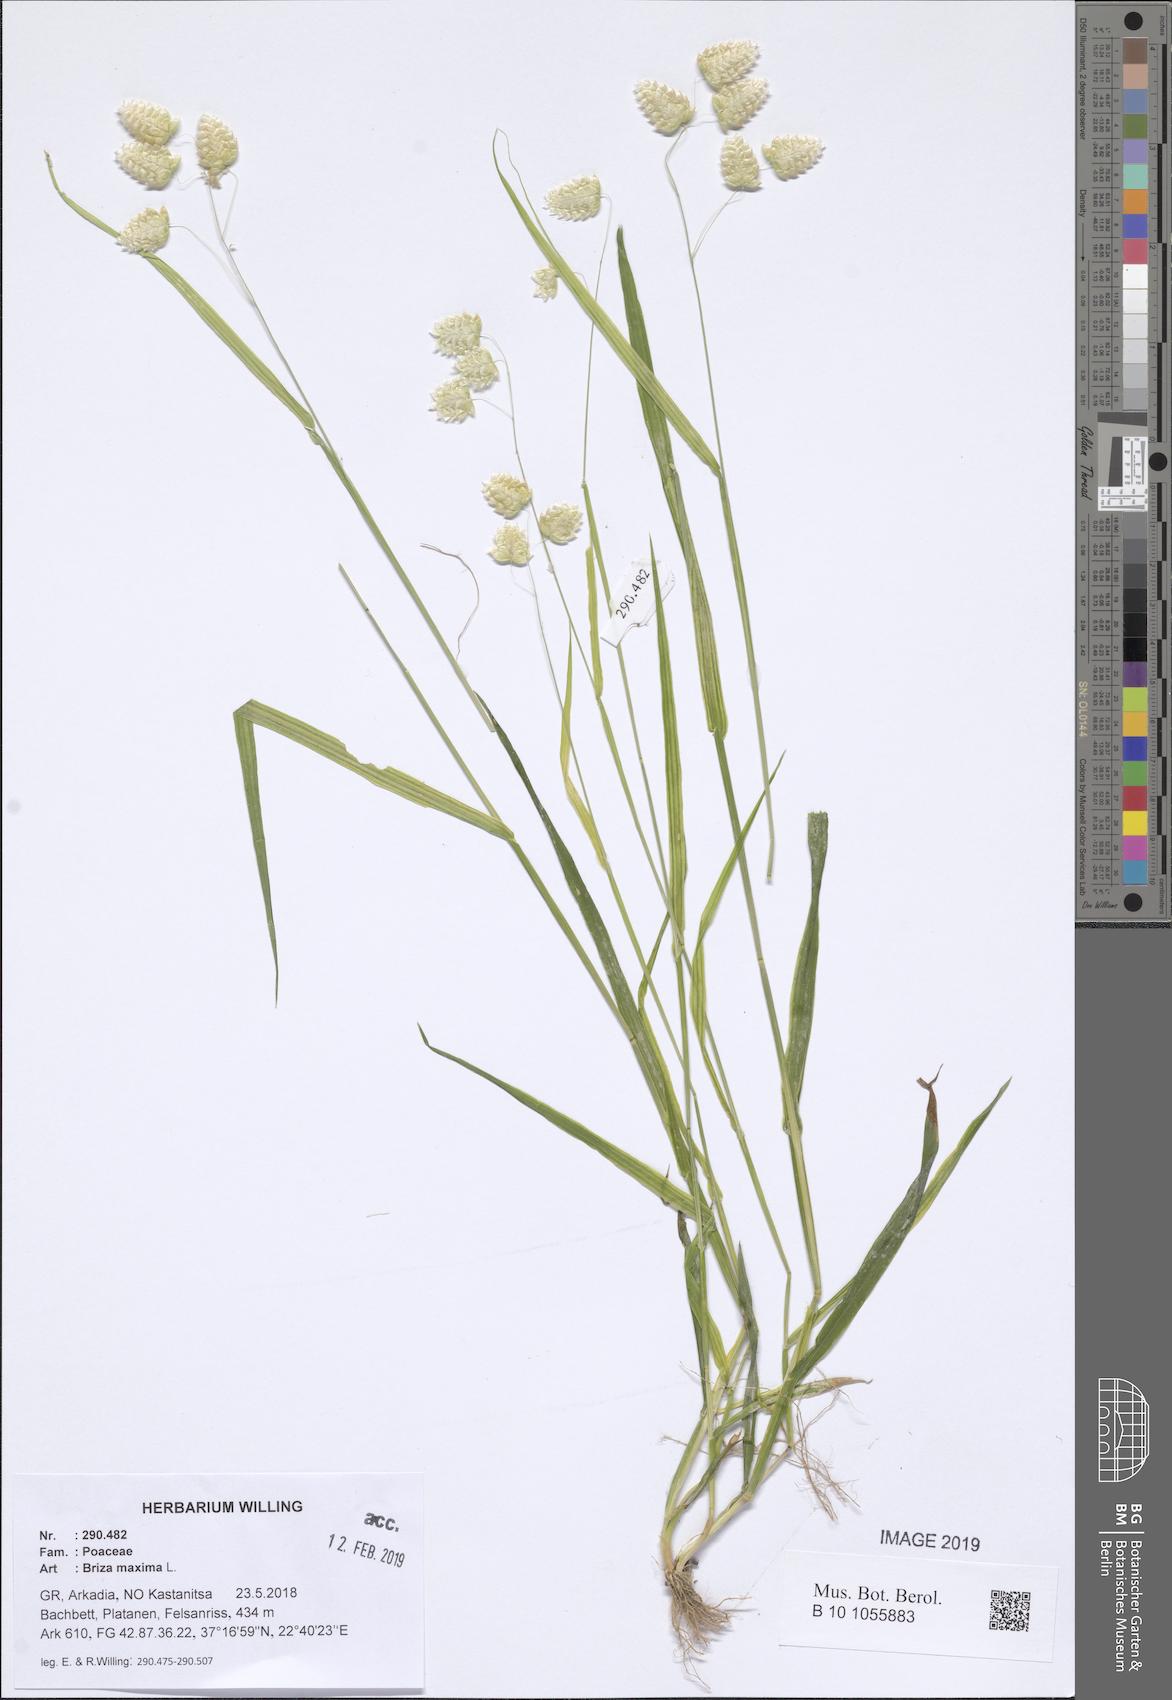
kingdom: Plantae
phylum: Tracheophyta
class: Liliopsida
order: Poales
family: Poaceae
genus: Briza
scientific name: Briza maxima
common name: Big quakinggrass
